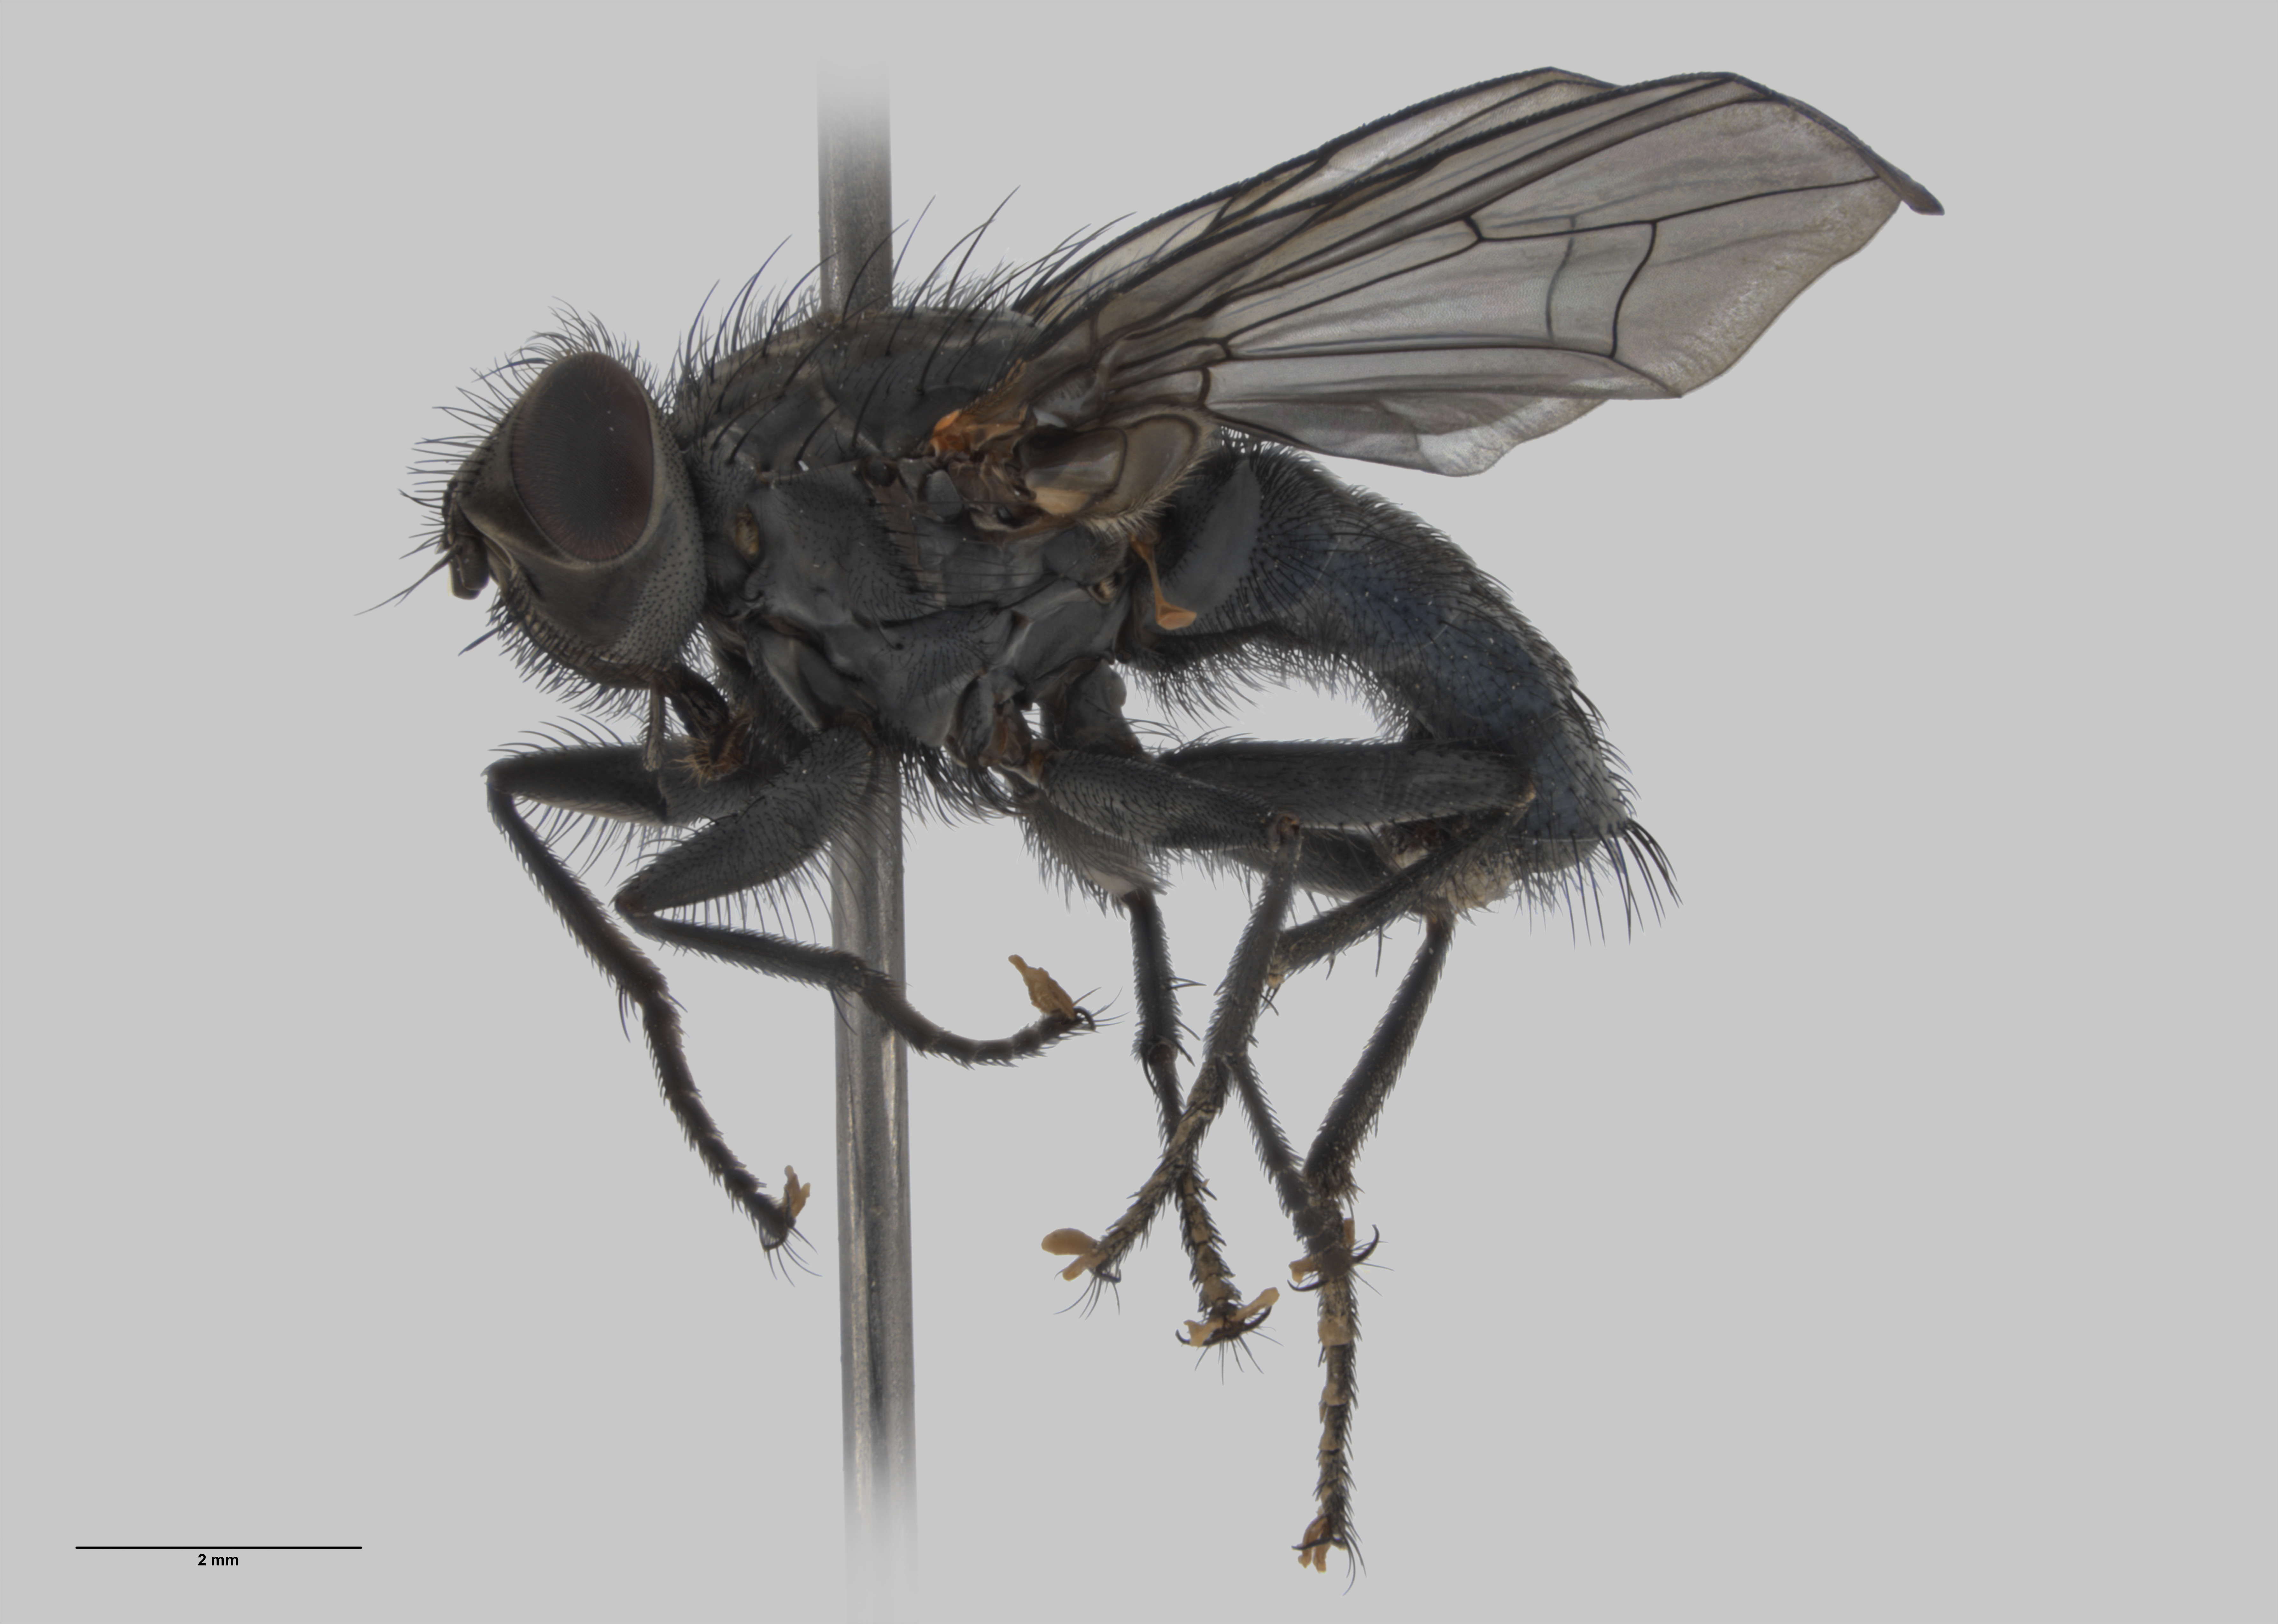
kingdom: Animalia
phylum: Arthropoda
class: Insecta
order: Diptera
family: Muscidae
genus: Spilogona
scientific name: Spilogona
